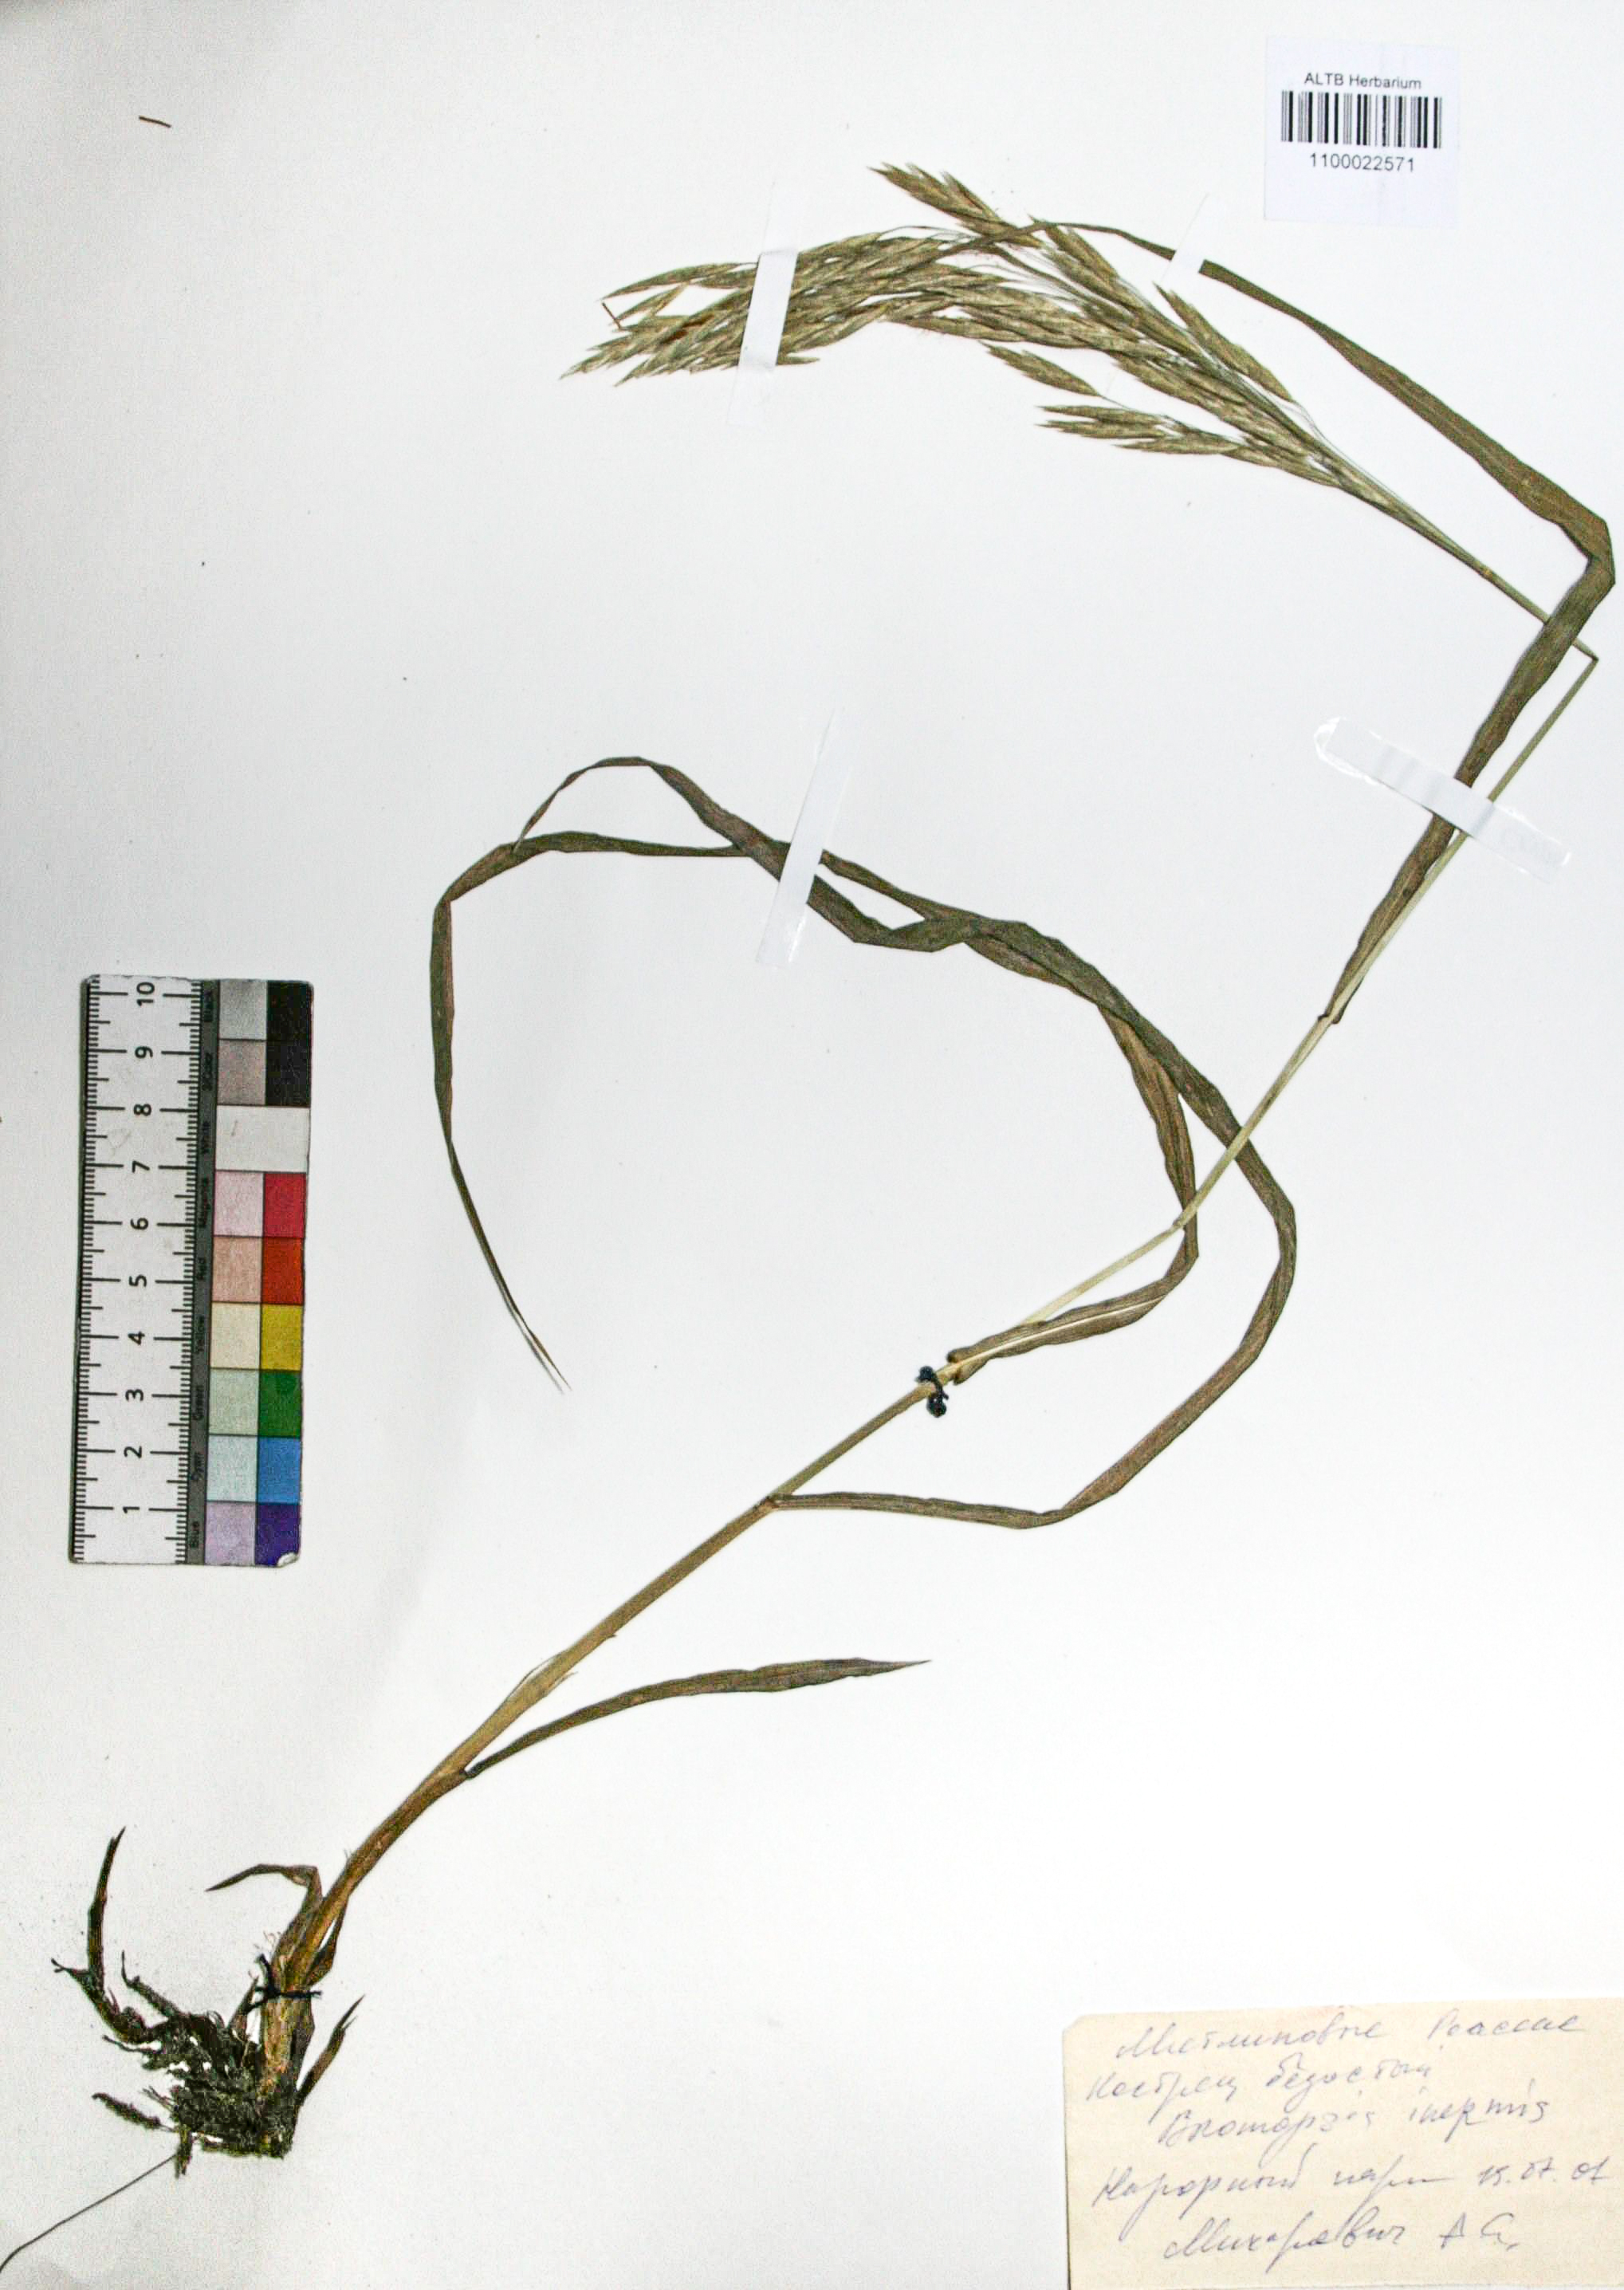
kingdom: Plantae
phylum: Tracheophyta
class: Liliopsida
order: Poales
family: Poaceae
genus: Bromus
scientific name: Bromus inermis
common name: Smooth brome
